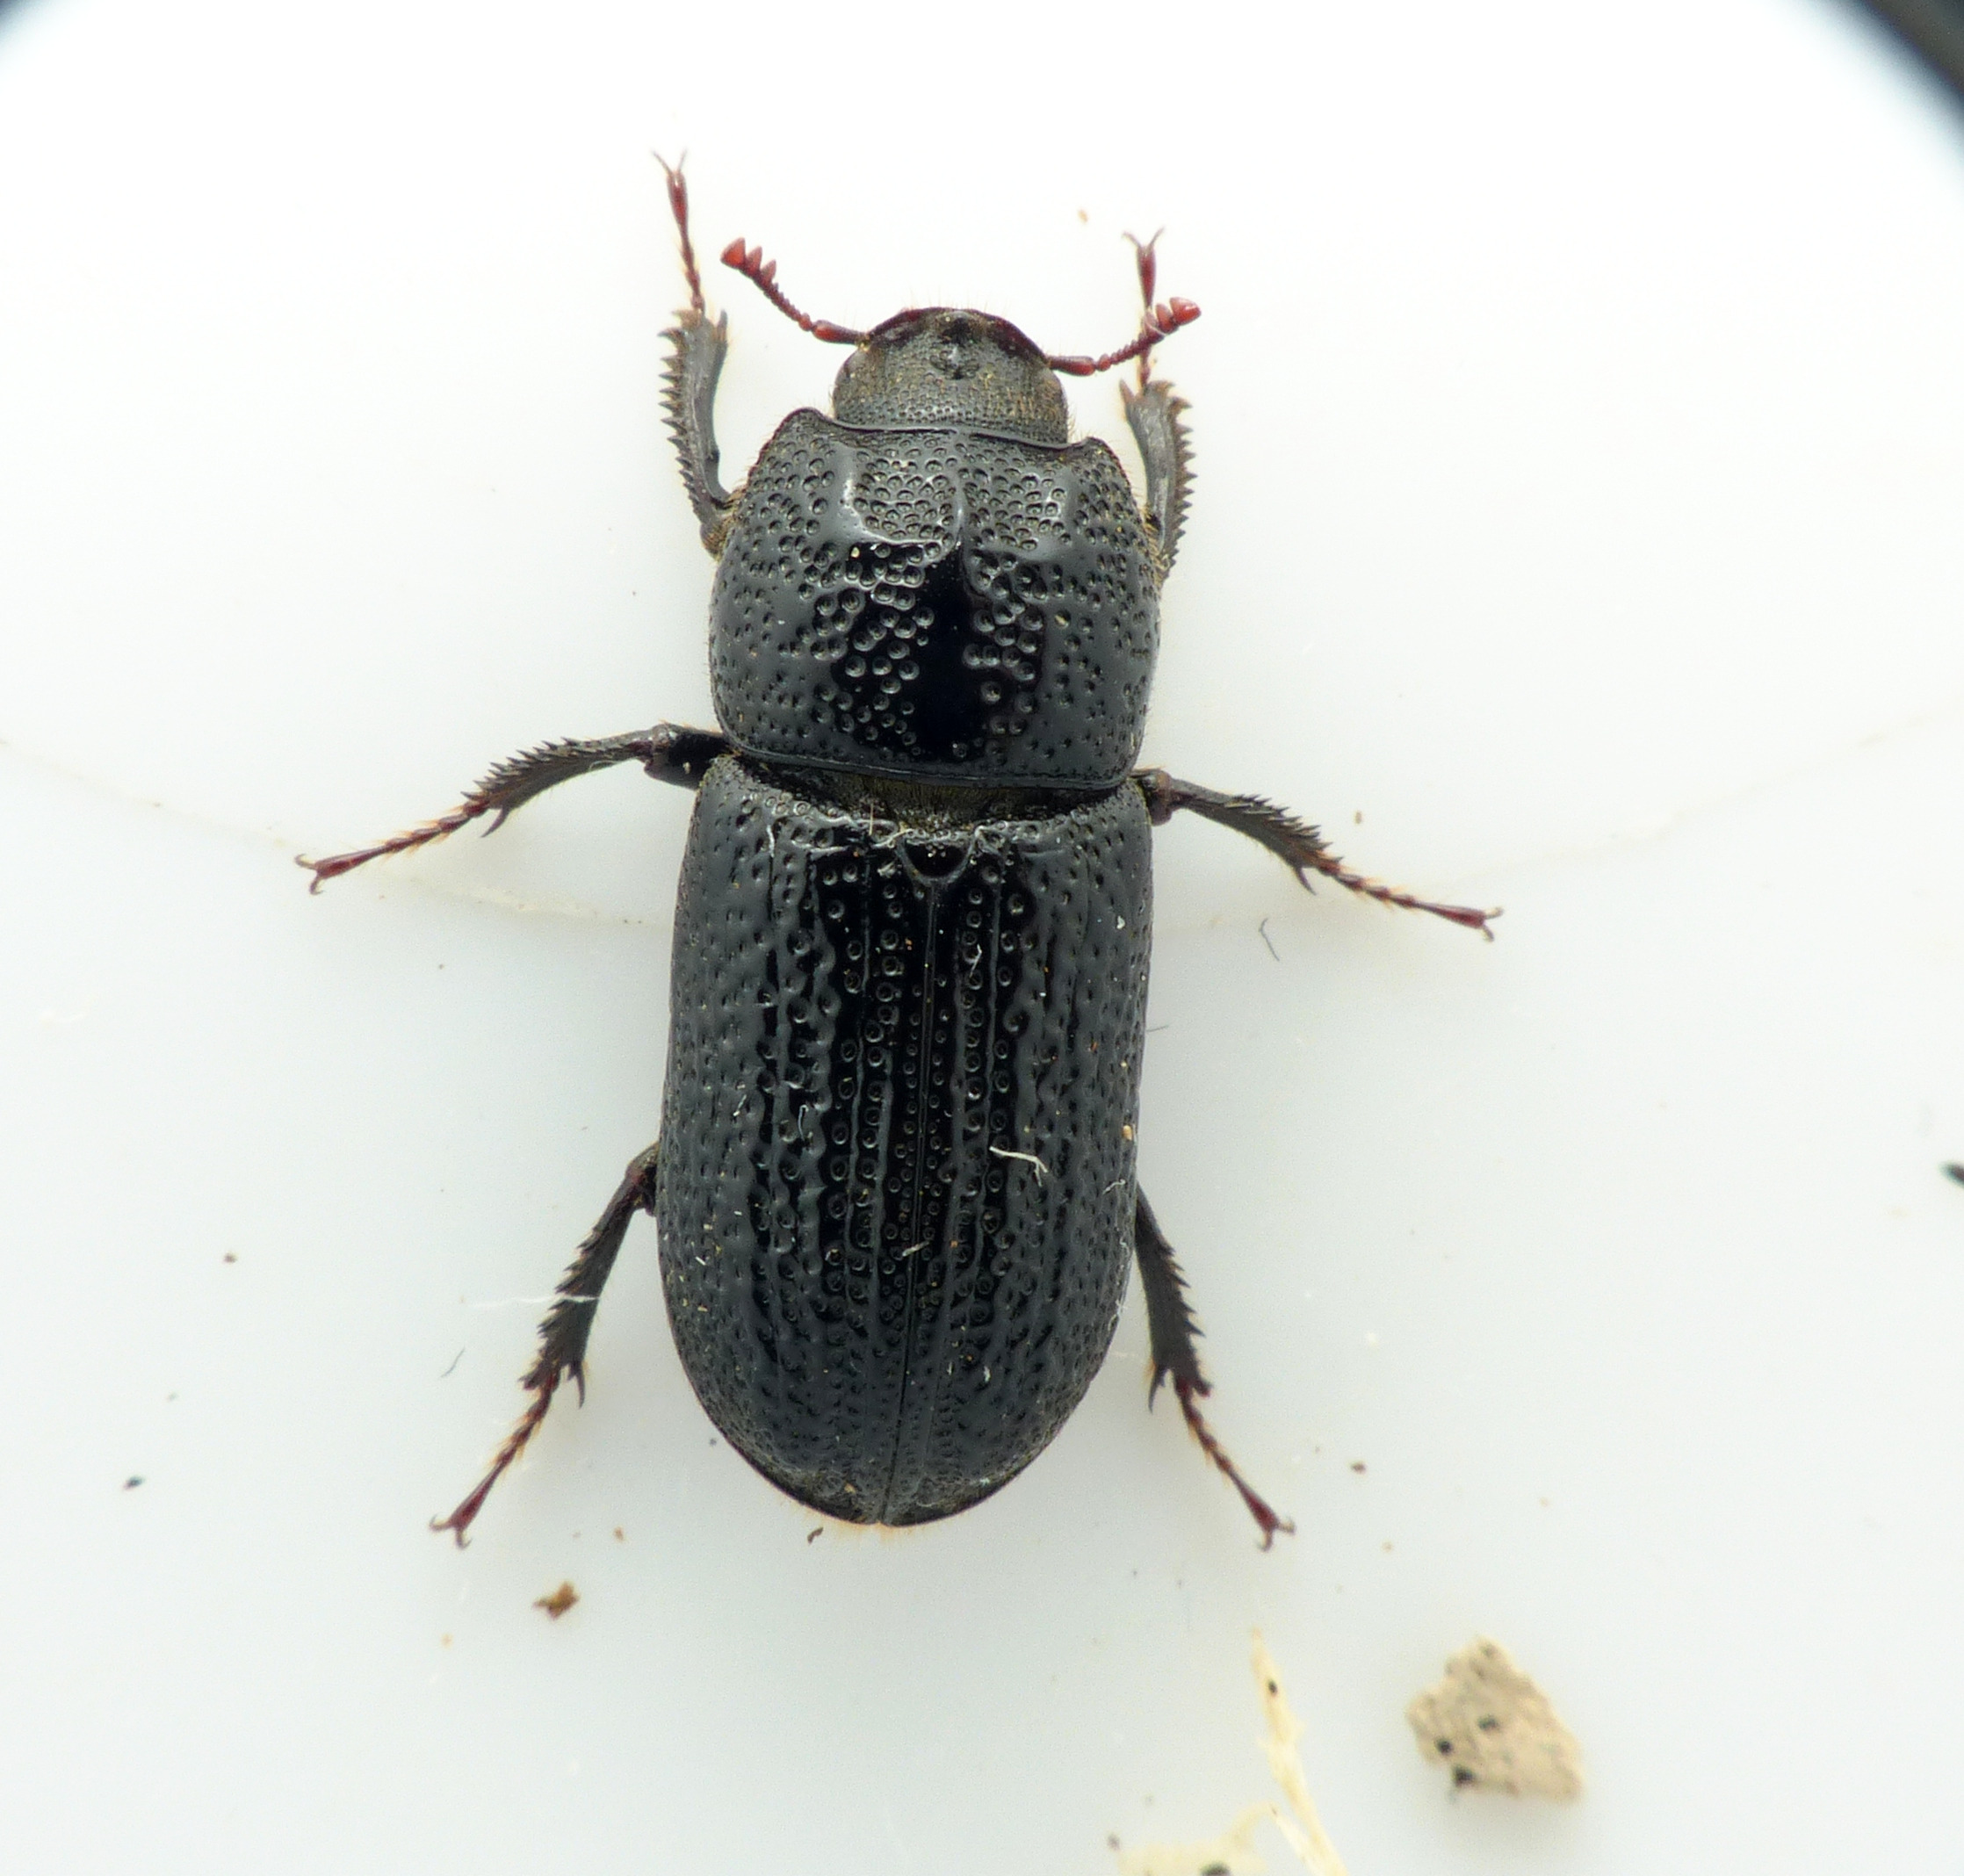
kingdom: Animalia
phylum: Arthropoda
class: Insecta
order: Coleoptera
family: Lucanidae
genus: Sinodendron
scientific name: Sinodendron cylindricum
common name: Valsehjort
